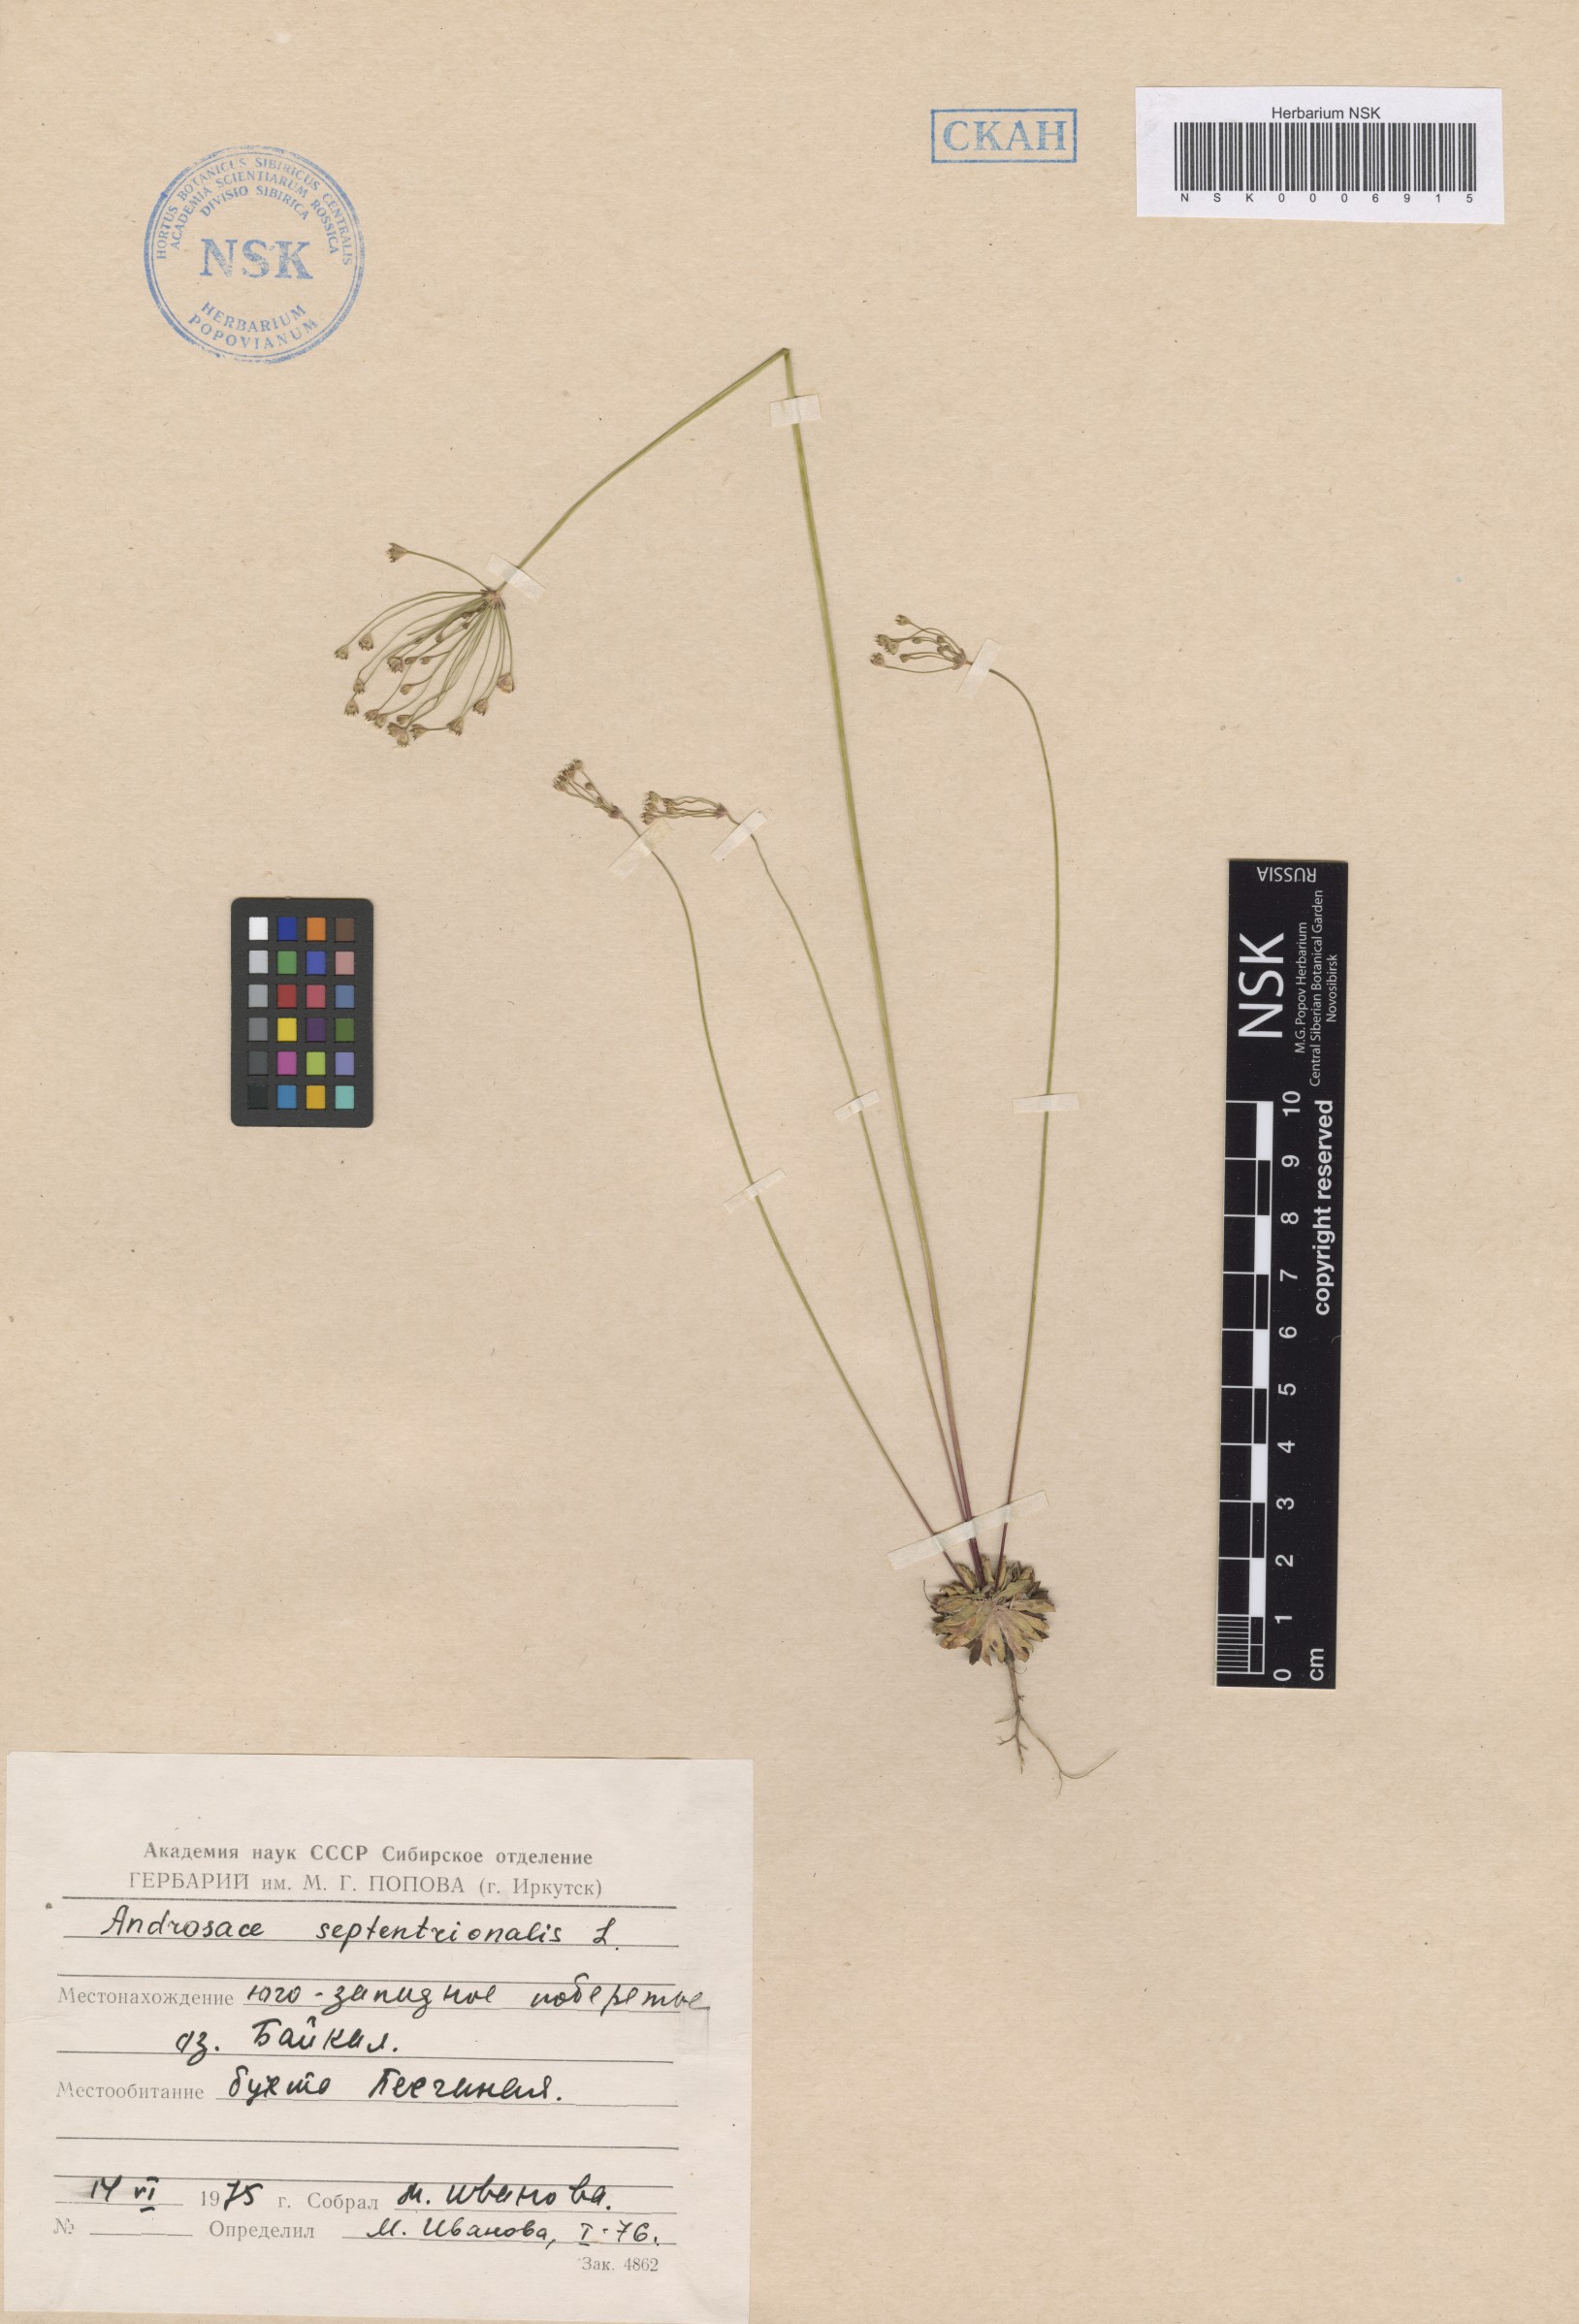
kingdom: Plantae
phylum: Tracheophyta
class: Magnoliopsida
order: Ericales
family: Primulaceae
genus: Androsace
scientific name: Androsace septentrionalis
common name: Hairy northern fairy-candelabra
